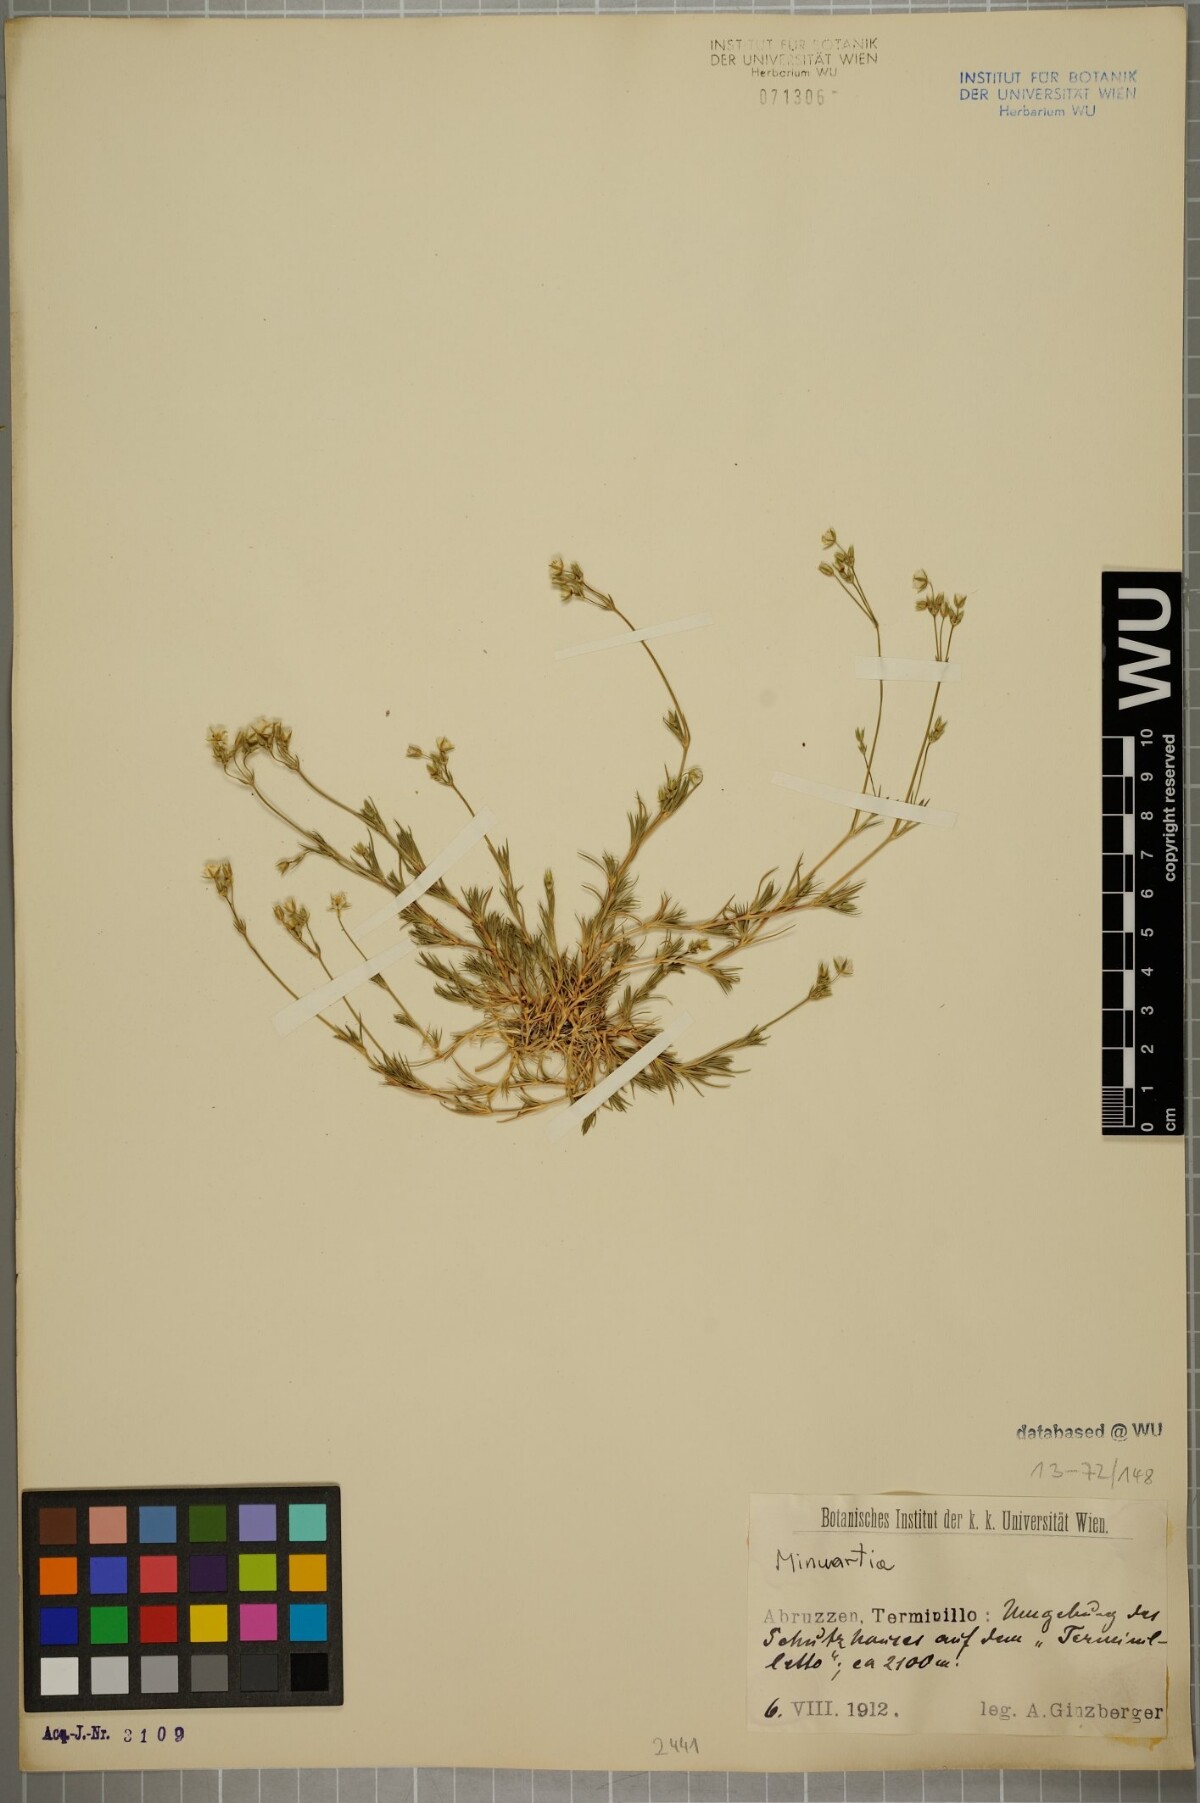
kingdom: Plantae
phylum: Tracheophyta
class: Magnoliopsida
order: Caryophyllales
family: Caryophyllaceae
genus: Sabulina
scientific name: Sabulina glaucina
